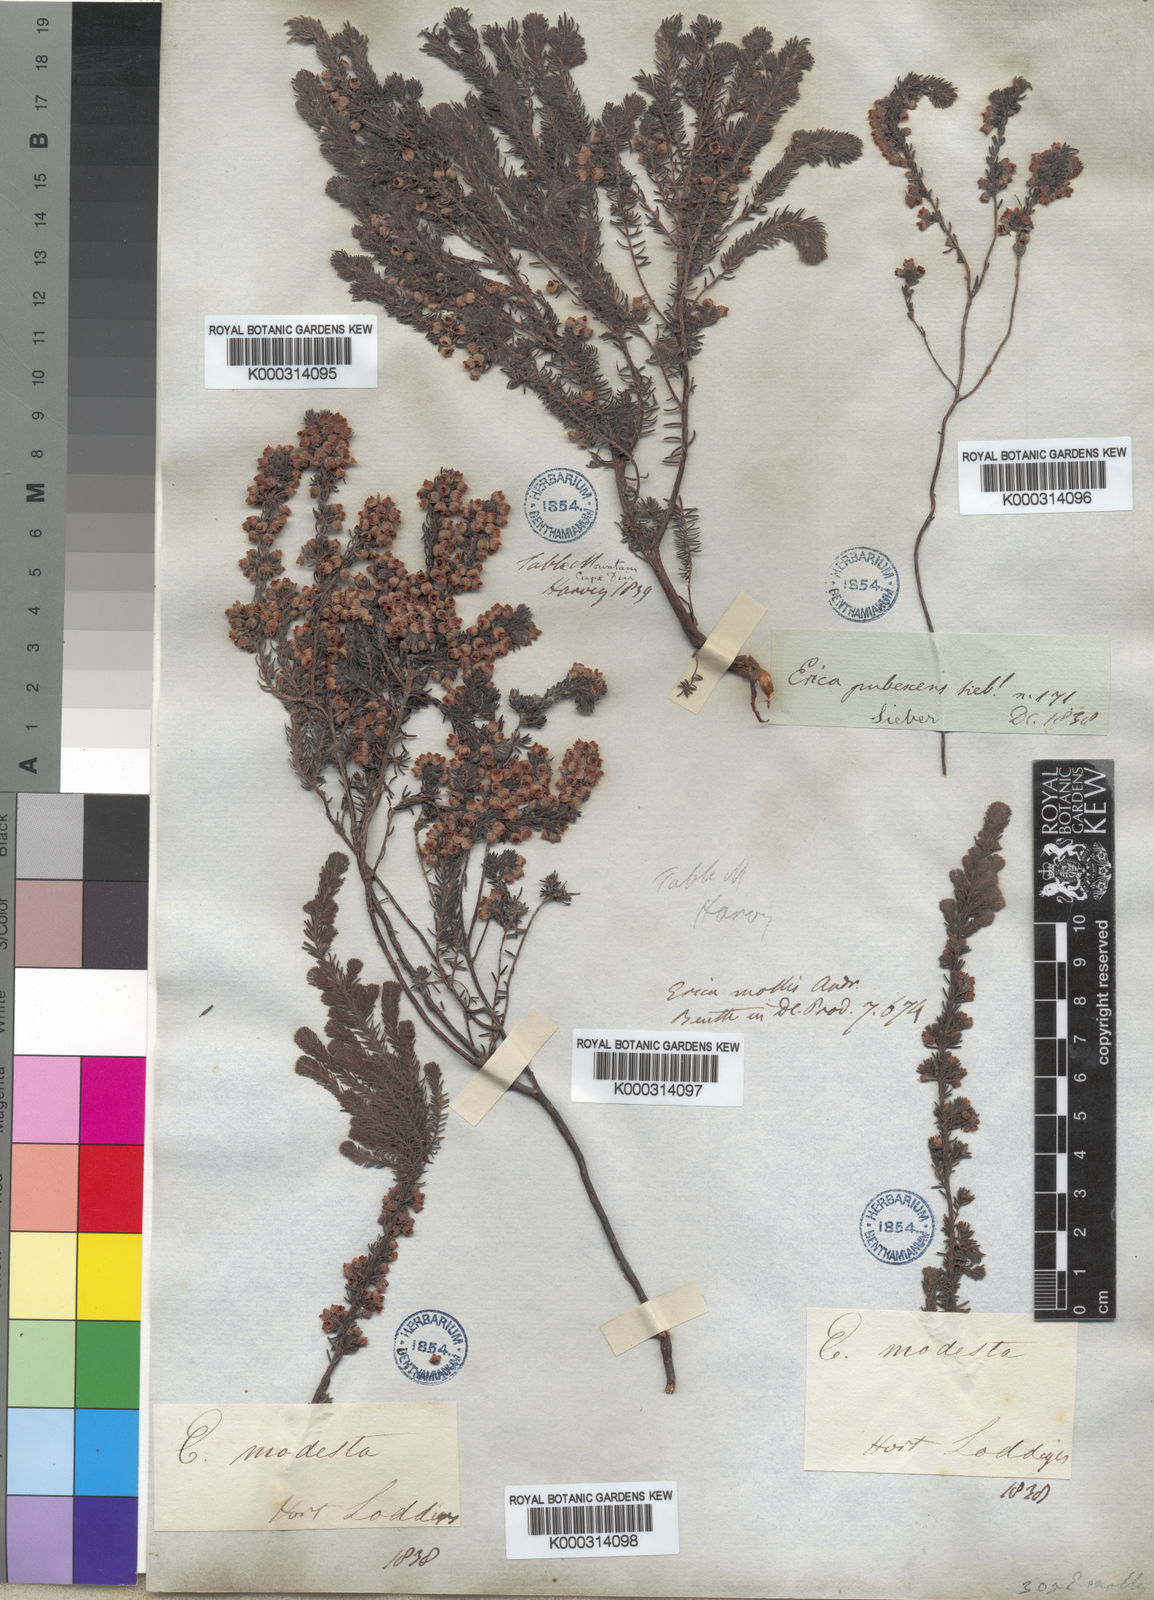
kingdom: Plantae
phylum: Tracheophyta
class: Magnoliopsida
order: Ericales
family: Ericaceae
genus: Erica
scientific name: Erica mollis
